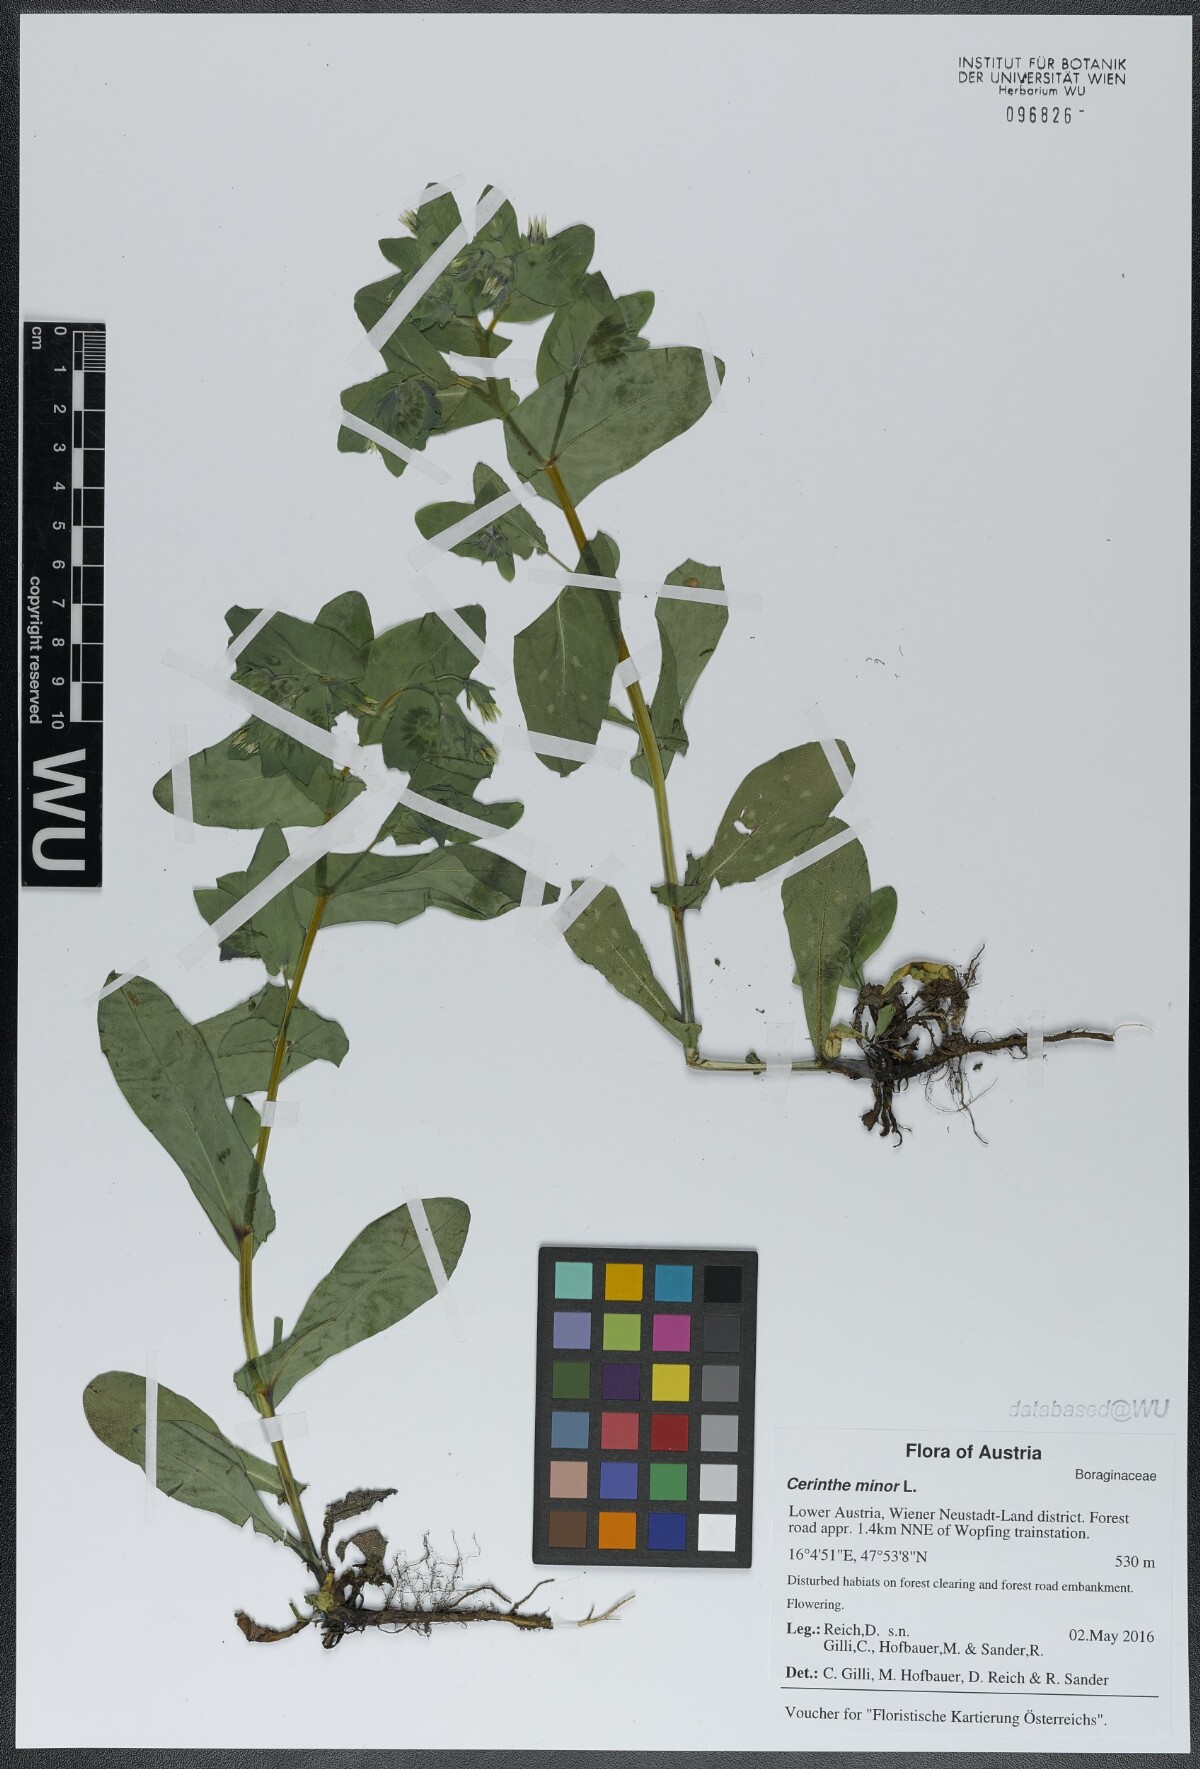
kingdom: Plantae
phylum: Tracheophyta
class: Magnoliopsida
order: Boraginales
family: Boraginaceae
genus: Cerinthe
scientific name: Cerinthe minor
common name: Lesser honeywort
